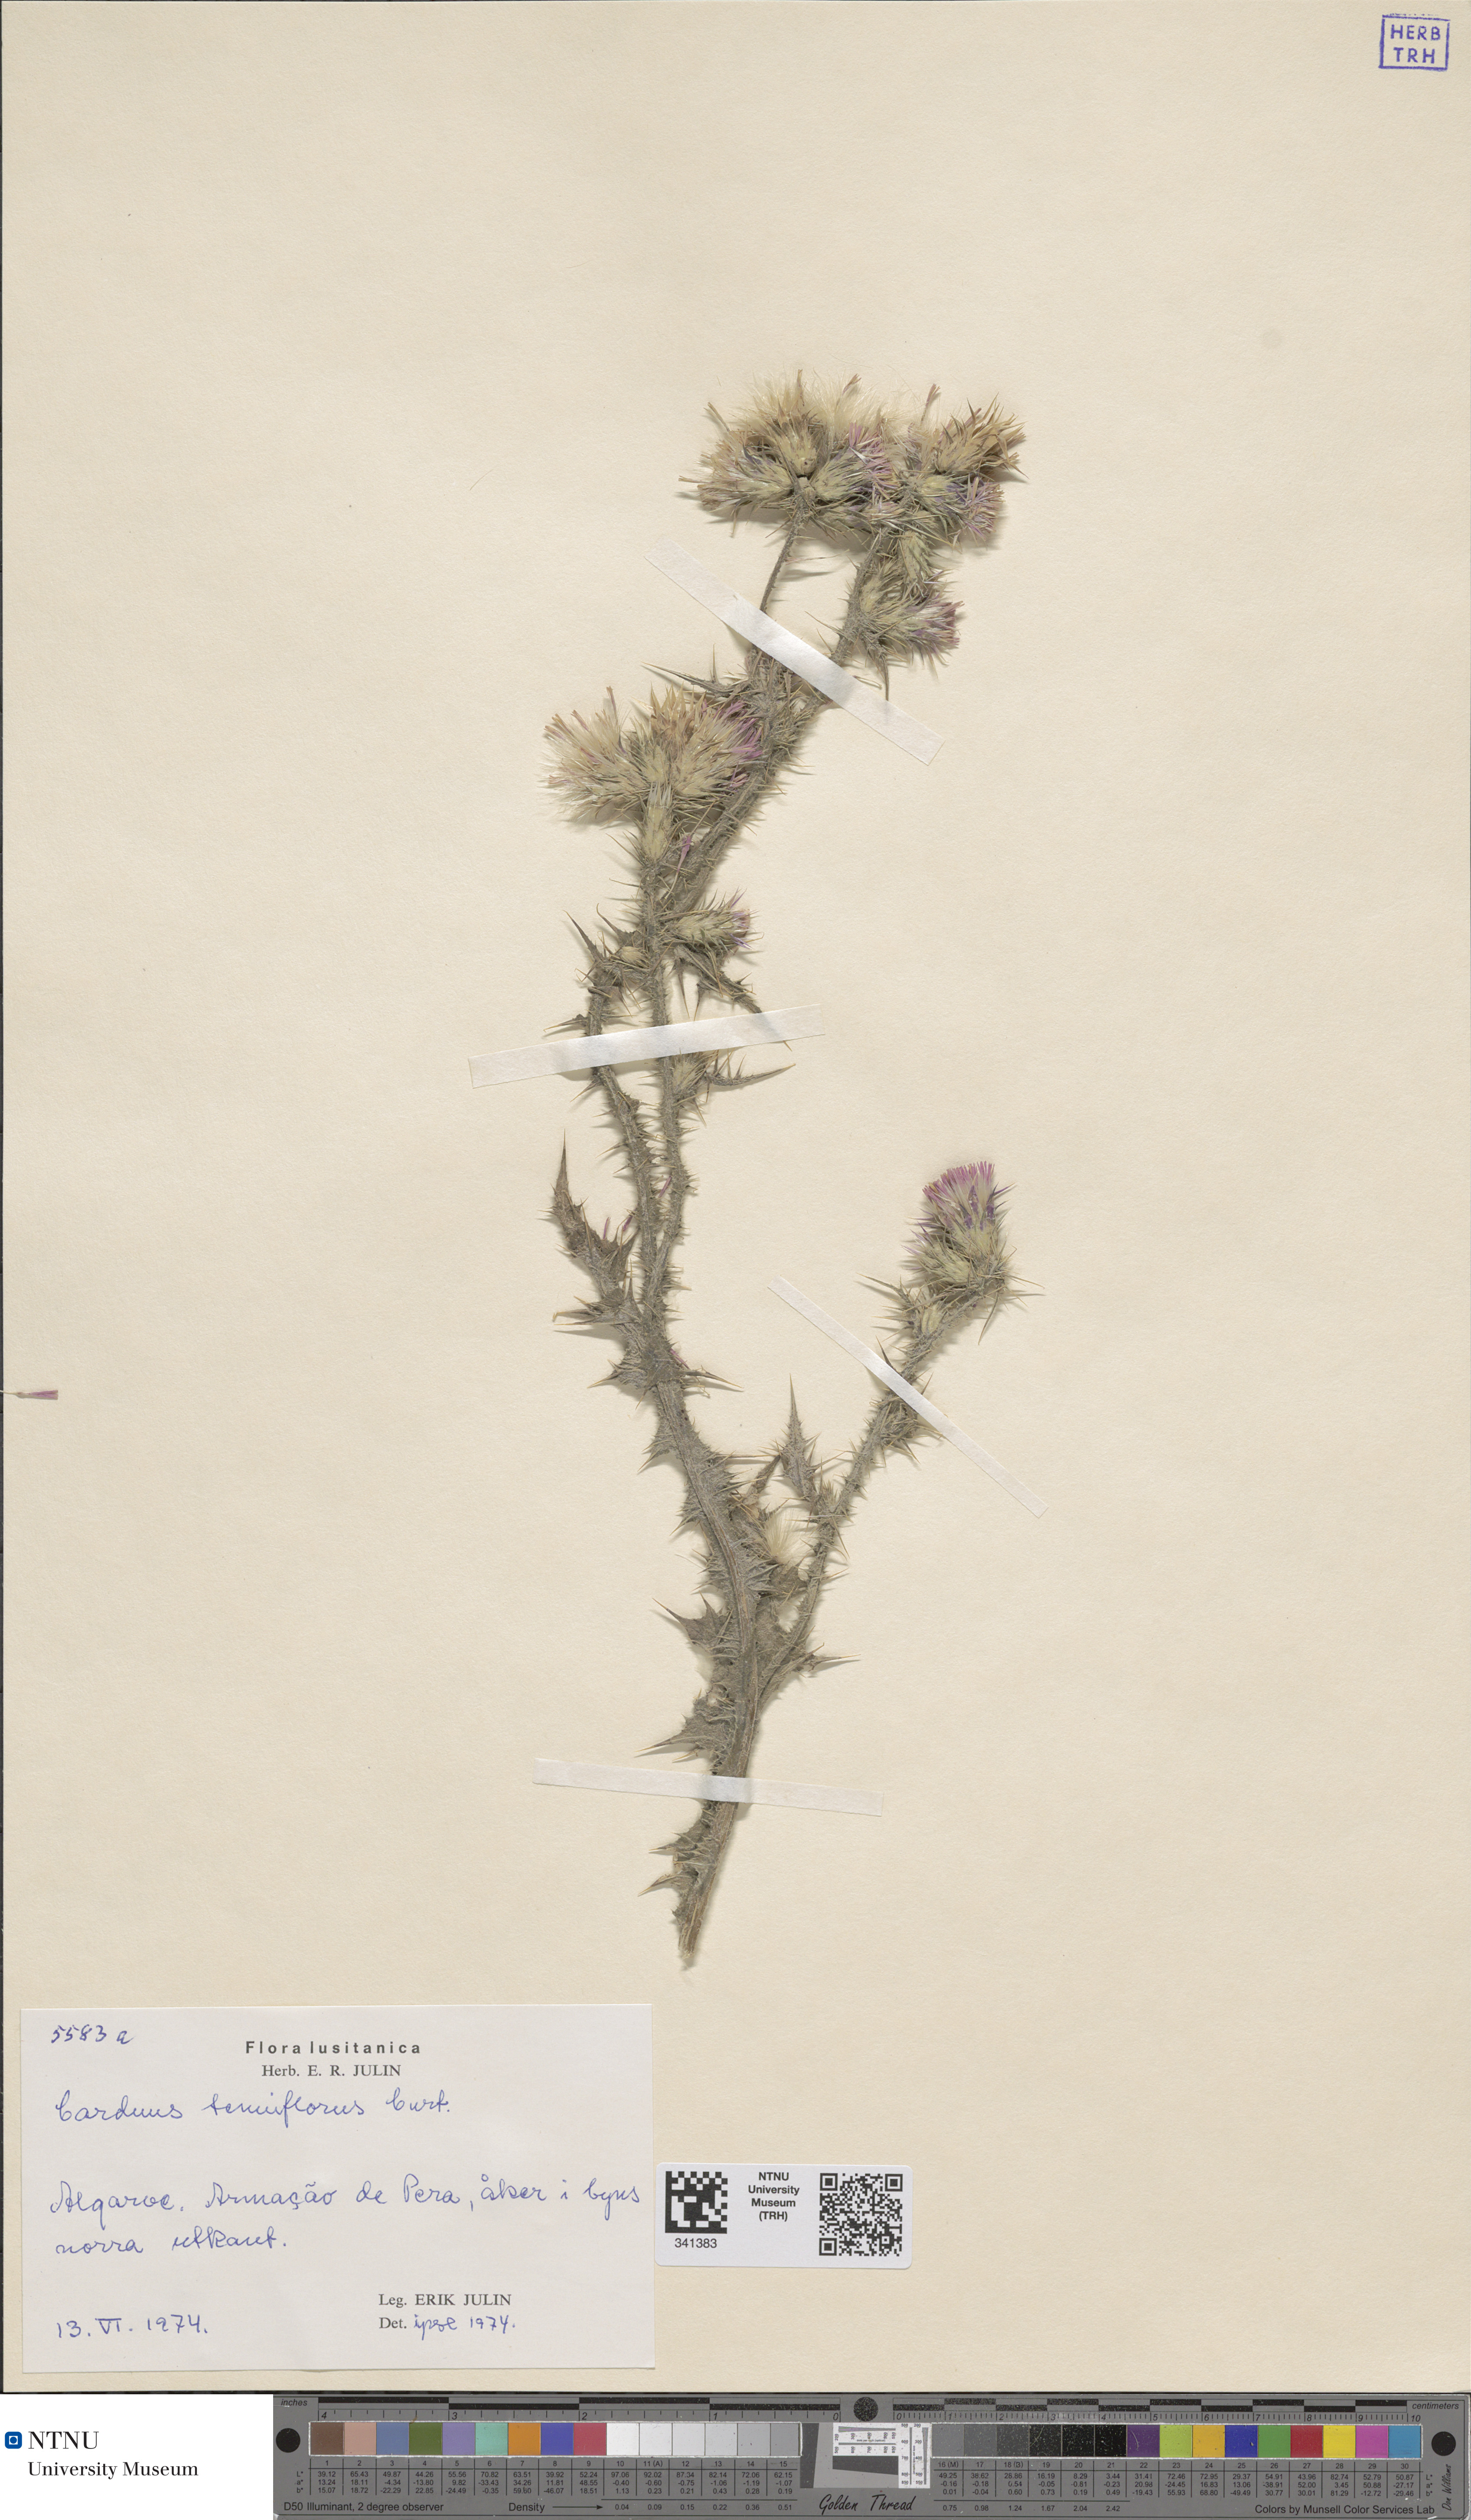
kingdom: Plantae
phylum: Tracheophyta
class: Magnoliopsida
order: Asterales
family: Asteraceae
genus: Carduus
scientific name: Carduus tenuiflorus
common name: Slender thistle
